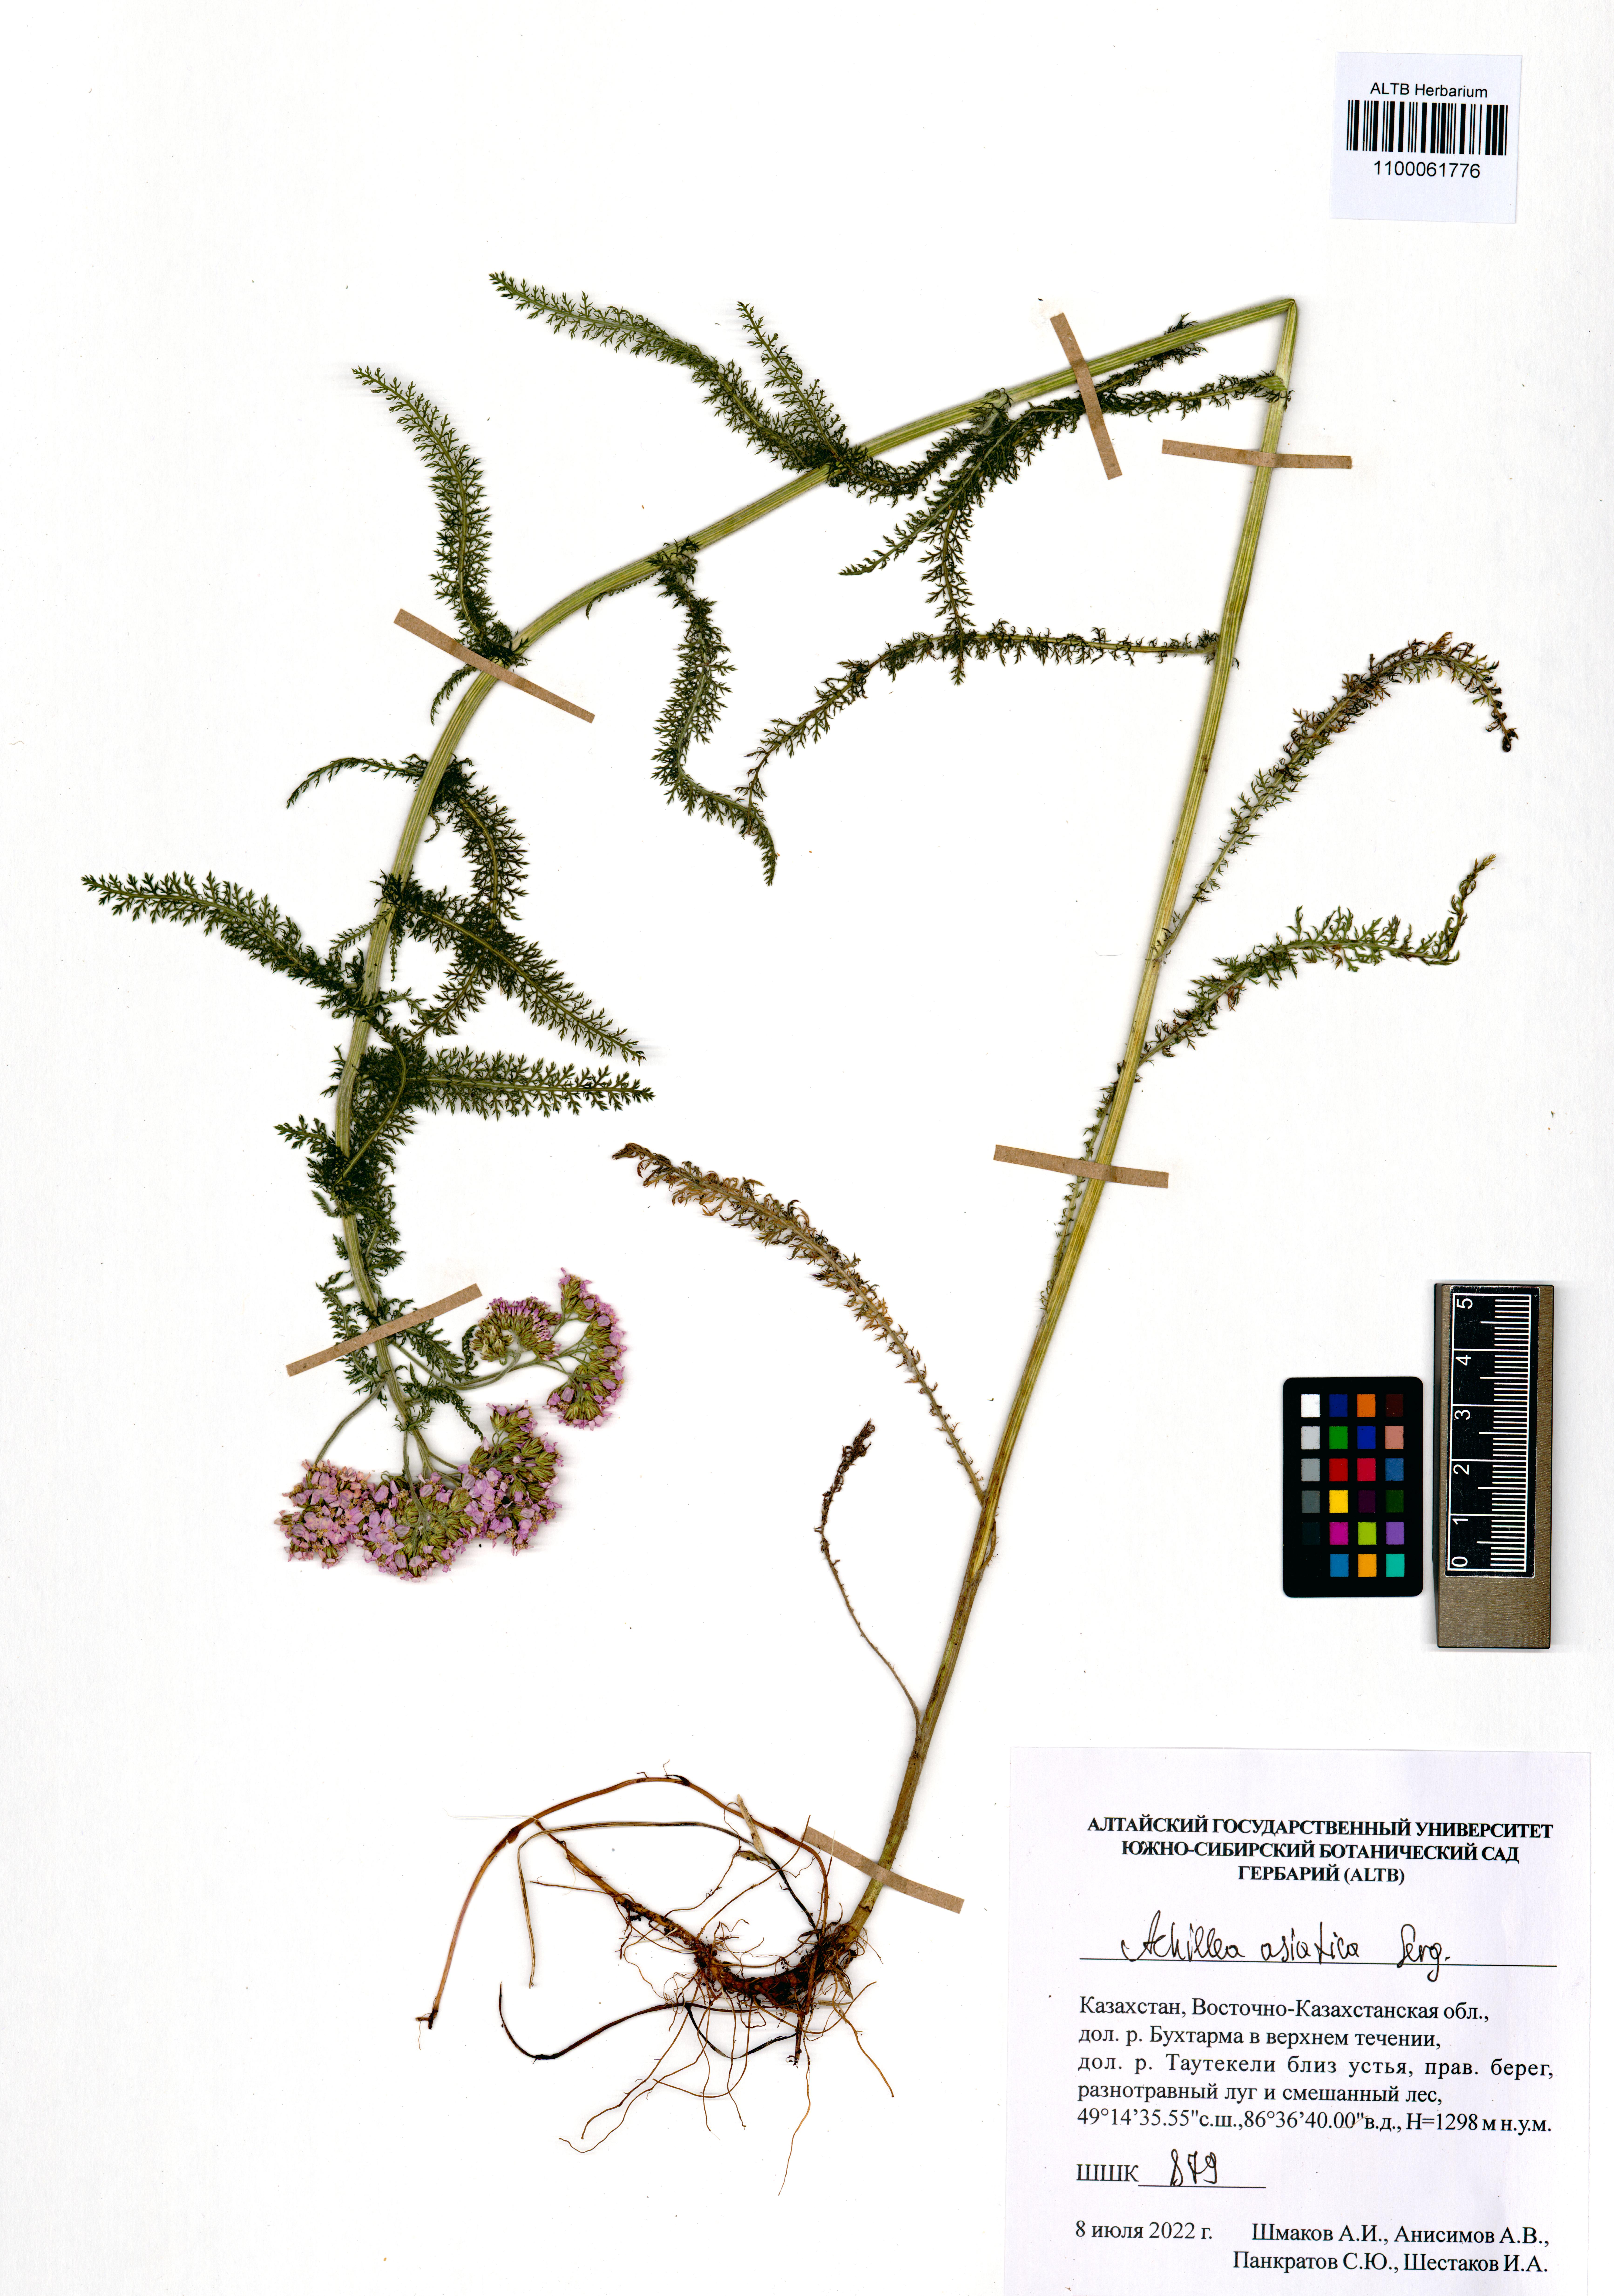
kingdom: Plantae
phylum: Tracheophyta
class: Magnoliopsida
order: Asterales
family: Asteraceae
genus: Achillea
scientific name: Achillea asiatica
